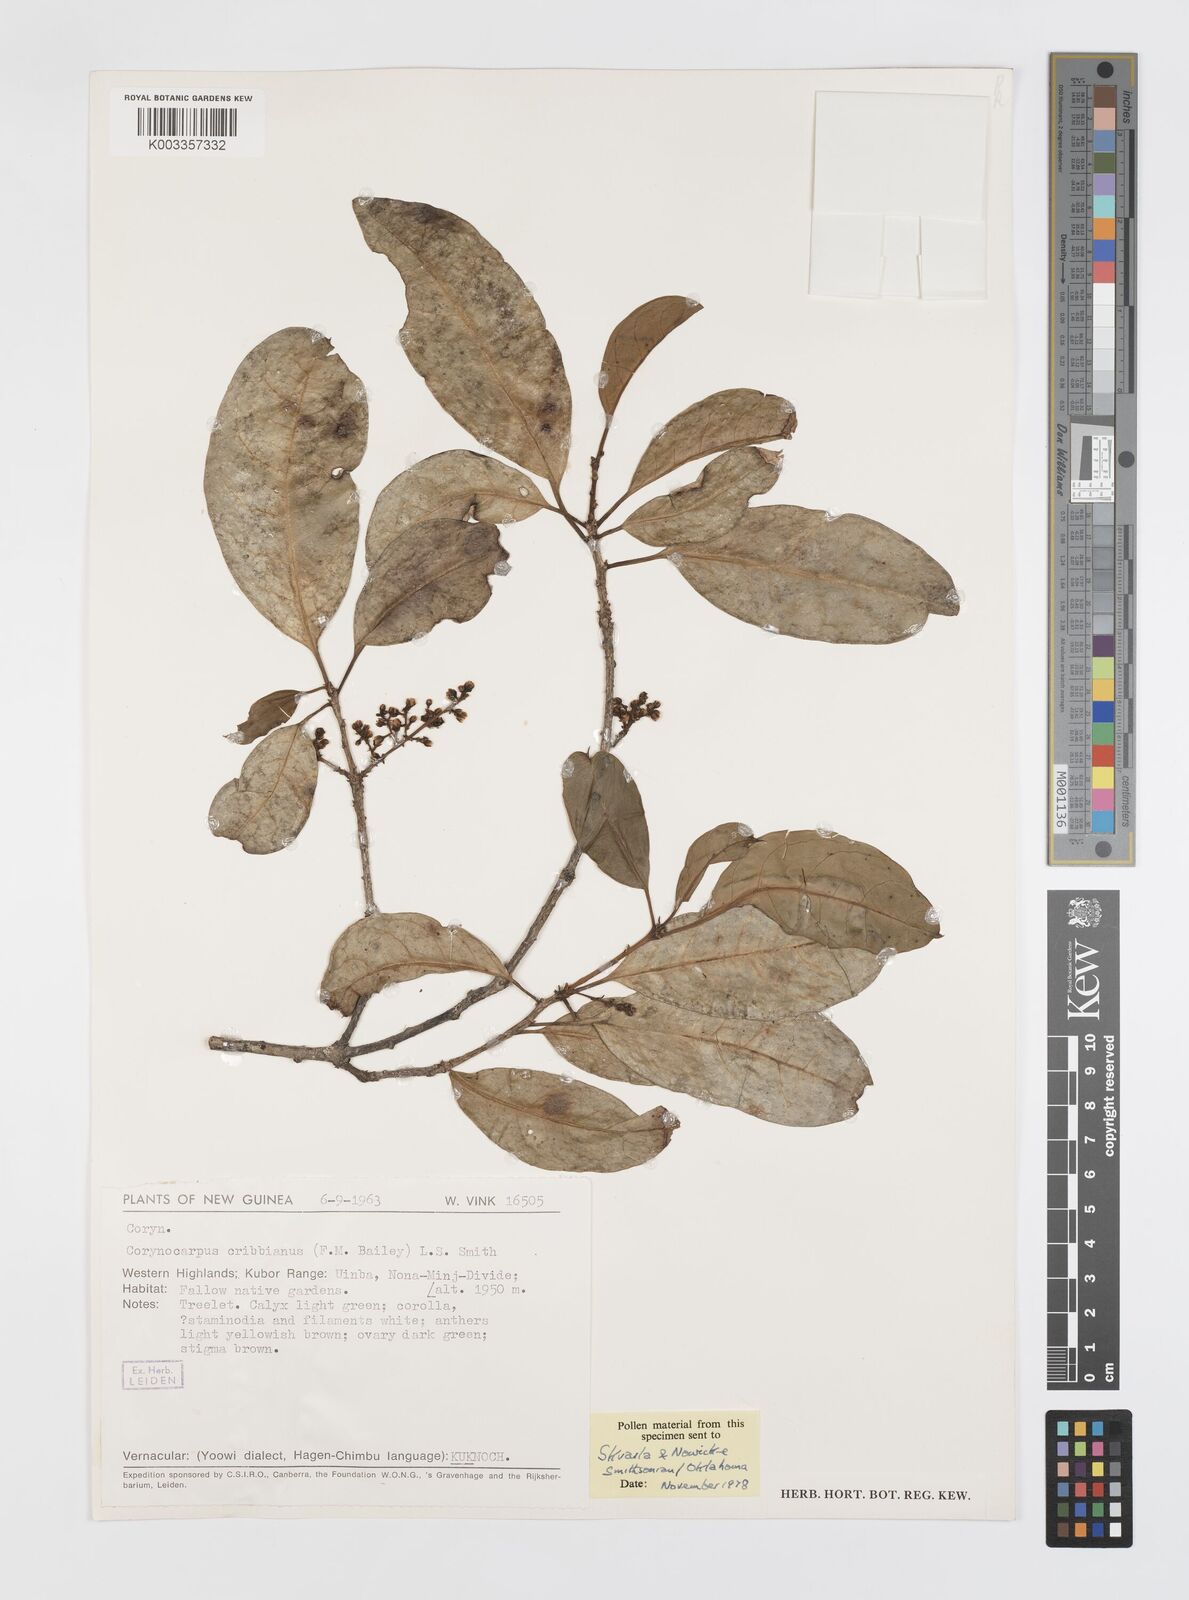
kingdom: Plantae
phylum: Tracheophyta
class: Magnoliopsida
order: Cucurbitales
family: Corynocarpaceae
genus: Corynocarpus
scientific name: Corynocarpus cribbianus
